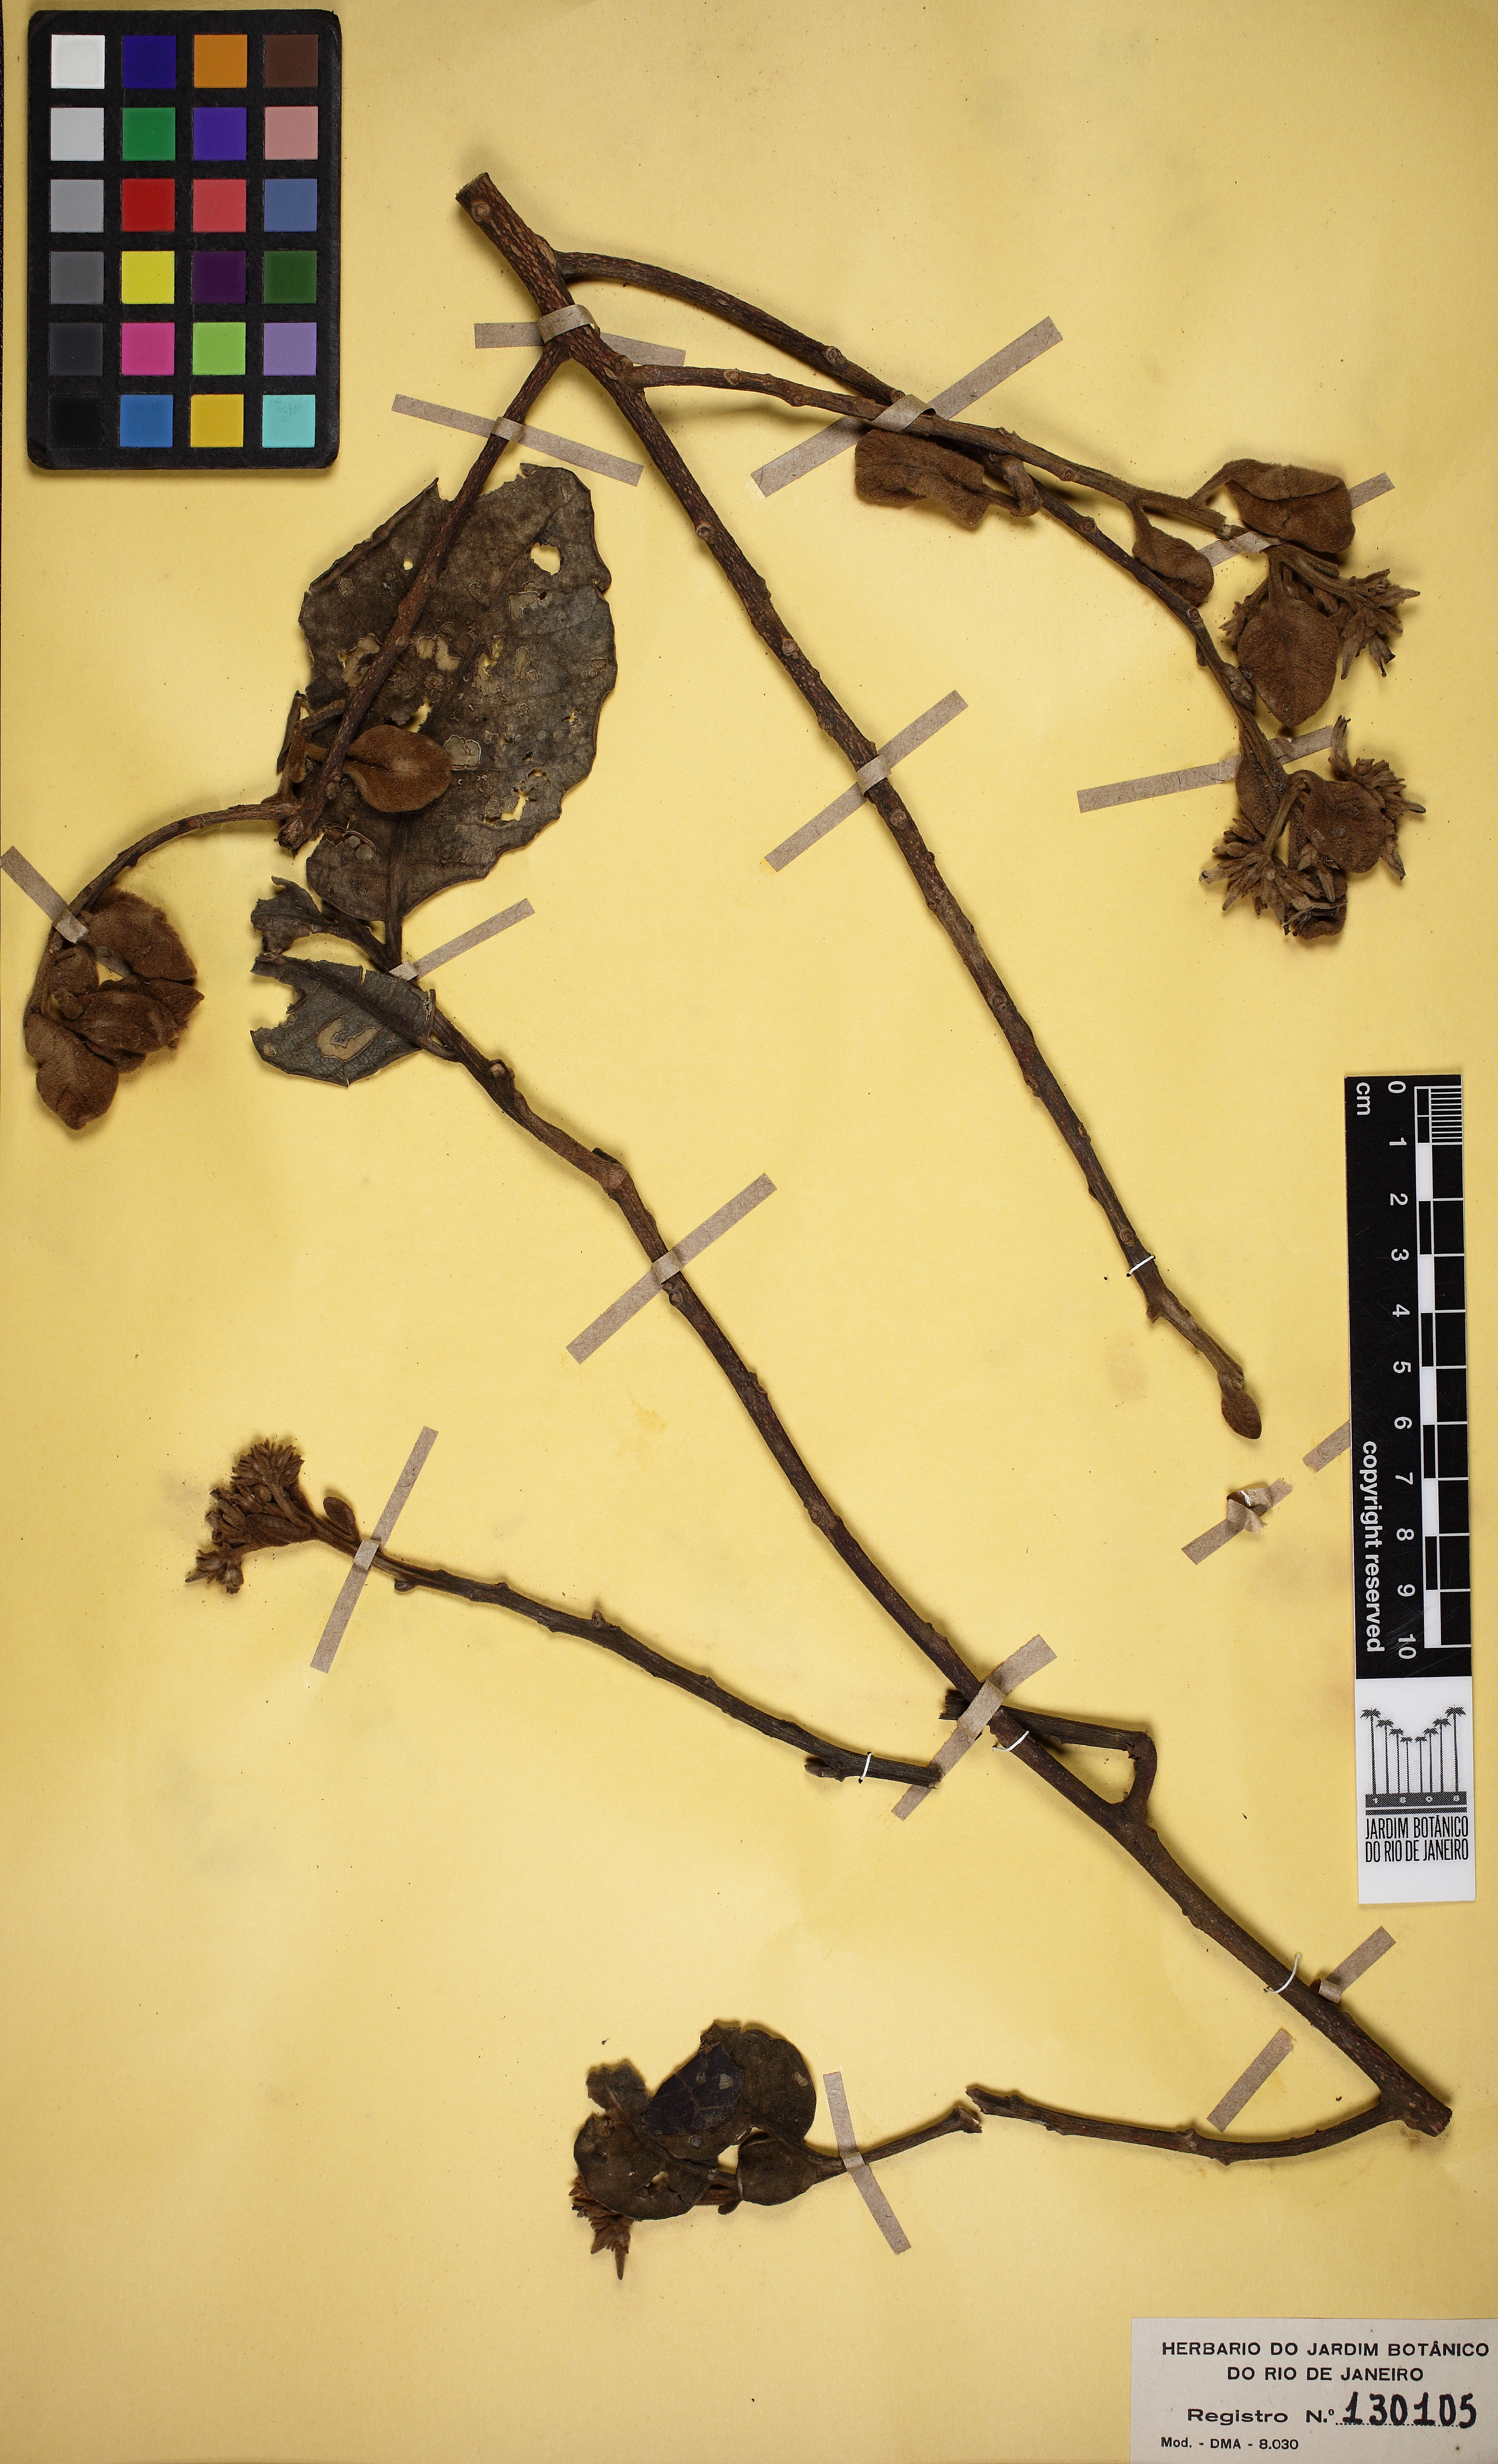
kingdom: Plantae
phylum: Tracheophyta
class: Magnoliopsida
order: Gentianales
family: Apocynaceae
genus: Aspidosperma
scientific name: Aspidosperma macrocarpon
